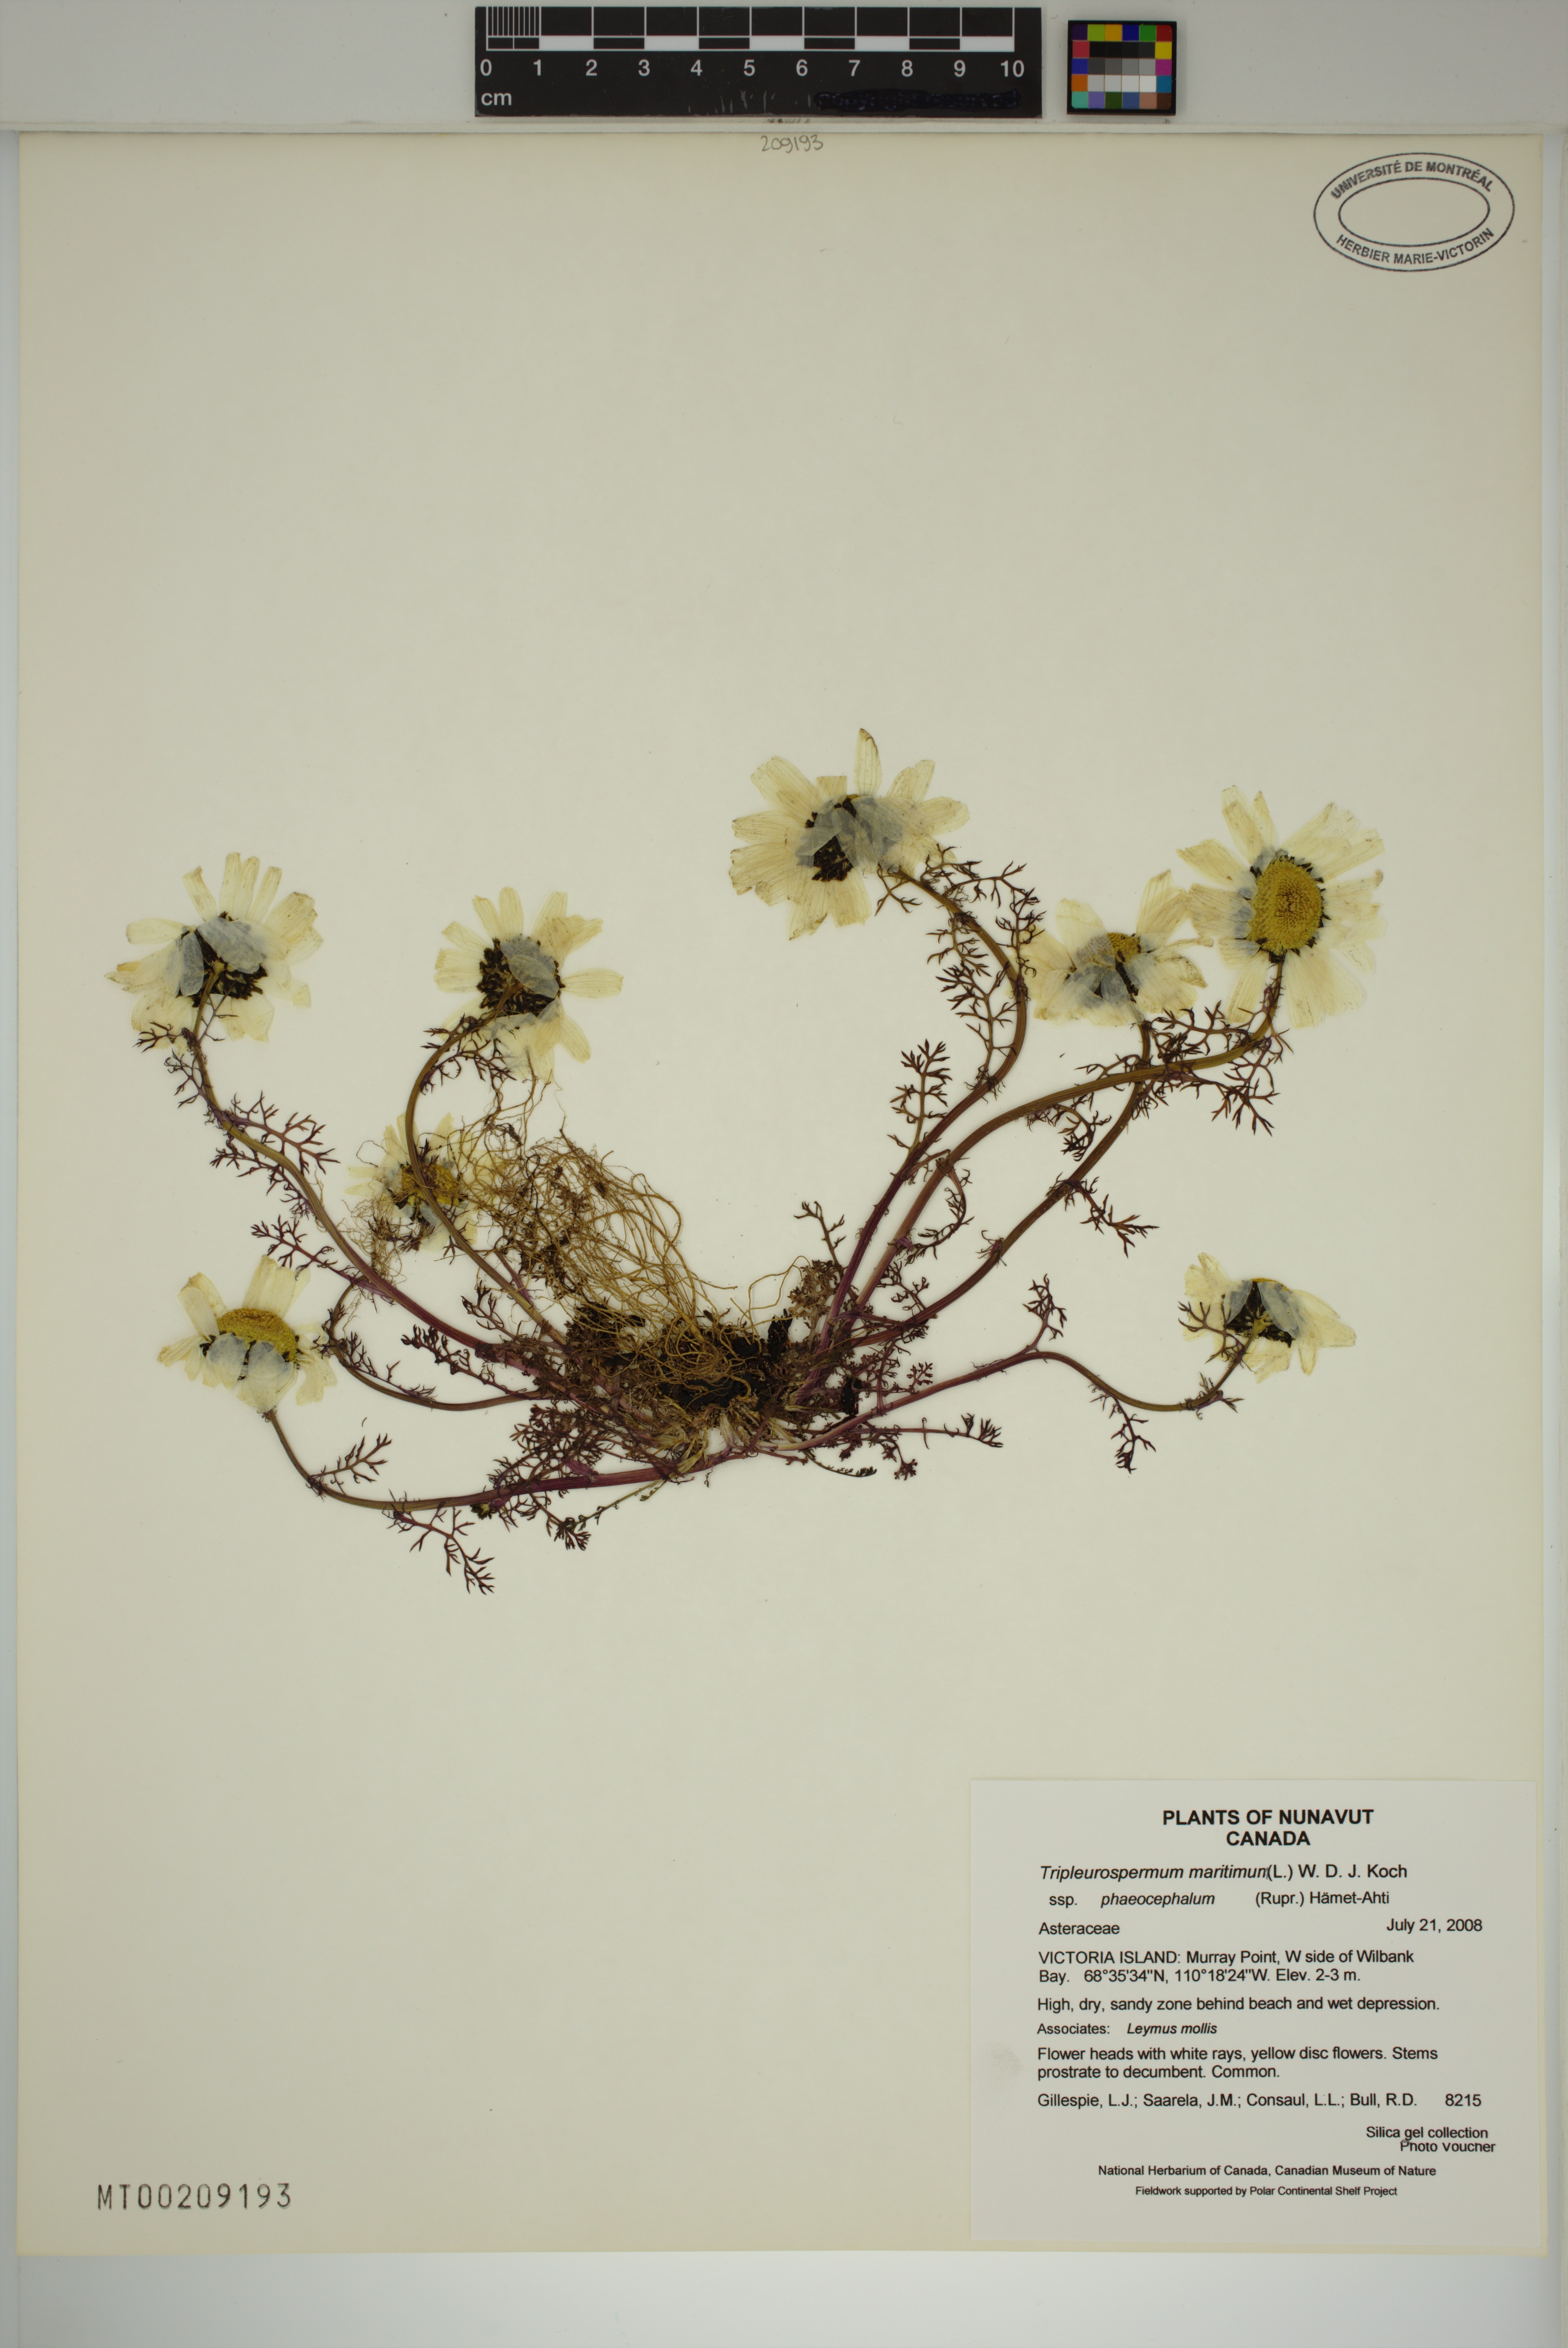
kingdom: Plantae
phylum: Tracheophyta
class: Magnoliopsida
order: Asterales
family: Asteraceae
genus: Tripleurospermum
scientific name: Tripleurospermum hookeri
